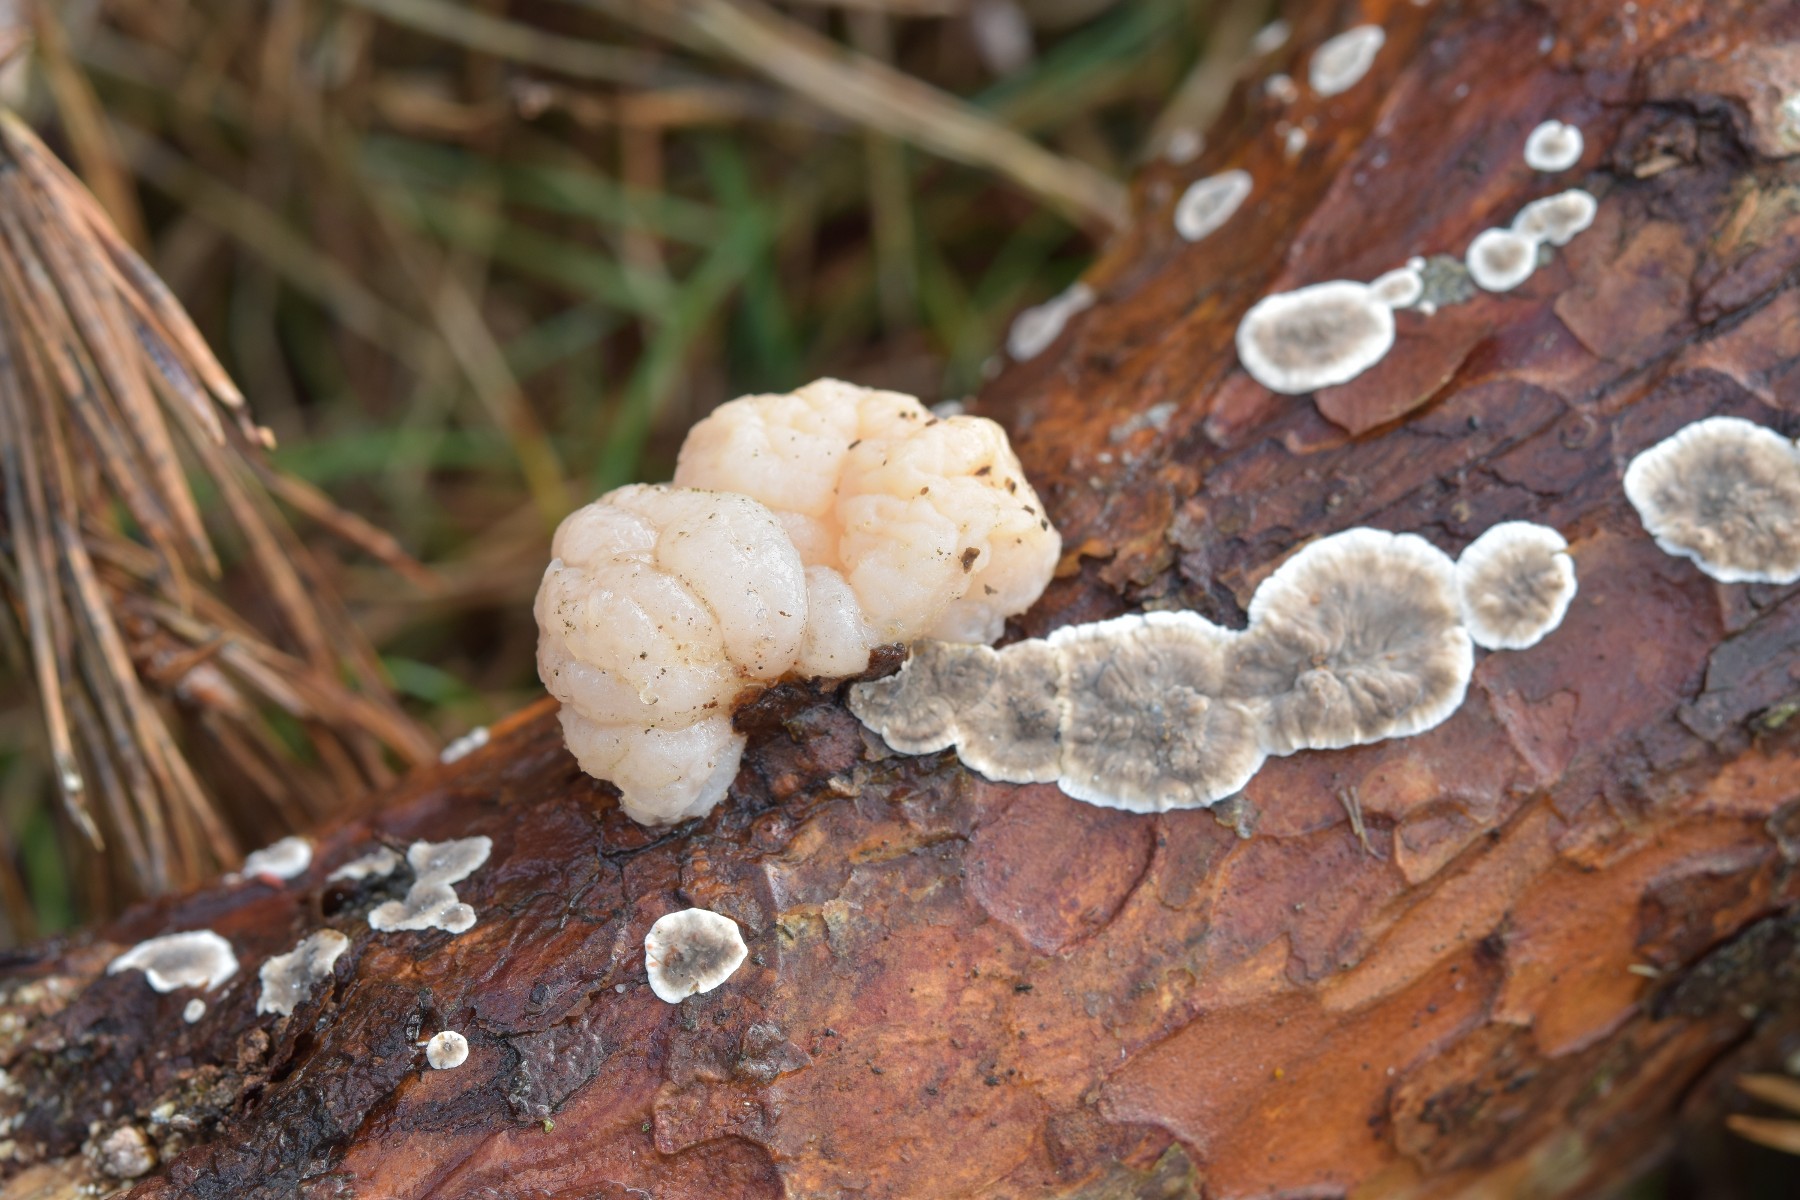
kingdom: Fungi
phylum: Basidiomycota
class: Tremellomycetes
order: Tremellales
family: Naemateliaceae
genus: Naematelia
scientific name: Naematelia encephala
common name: fyrre-bævresvamp
